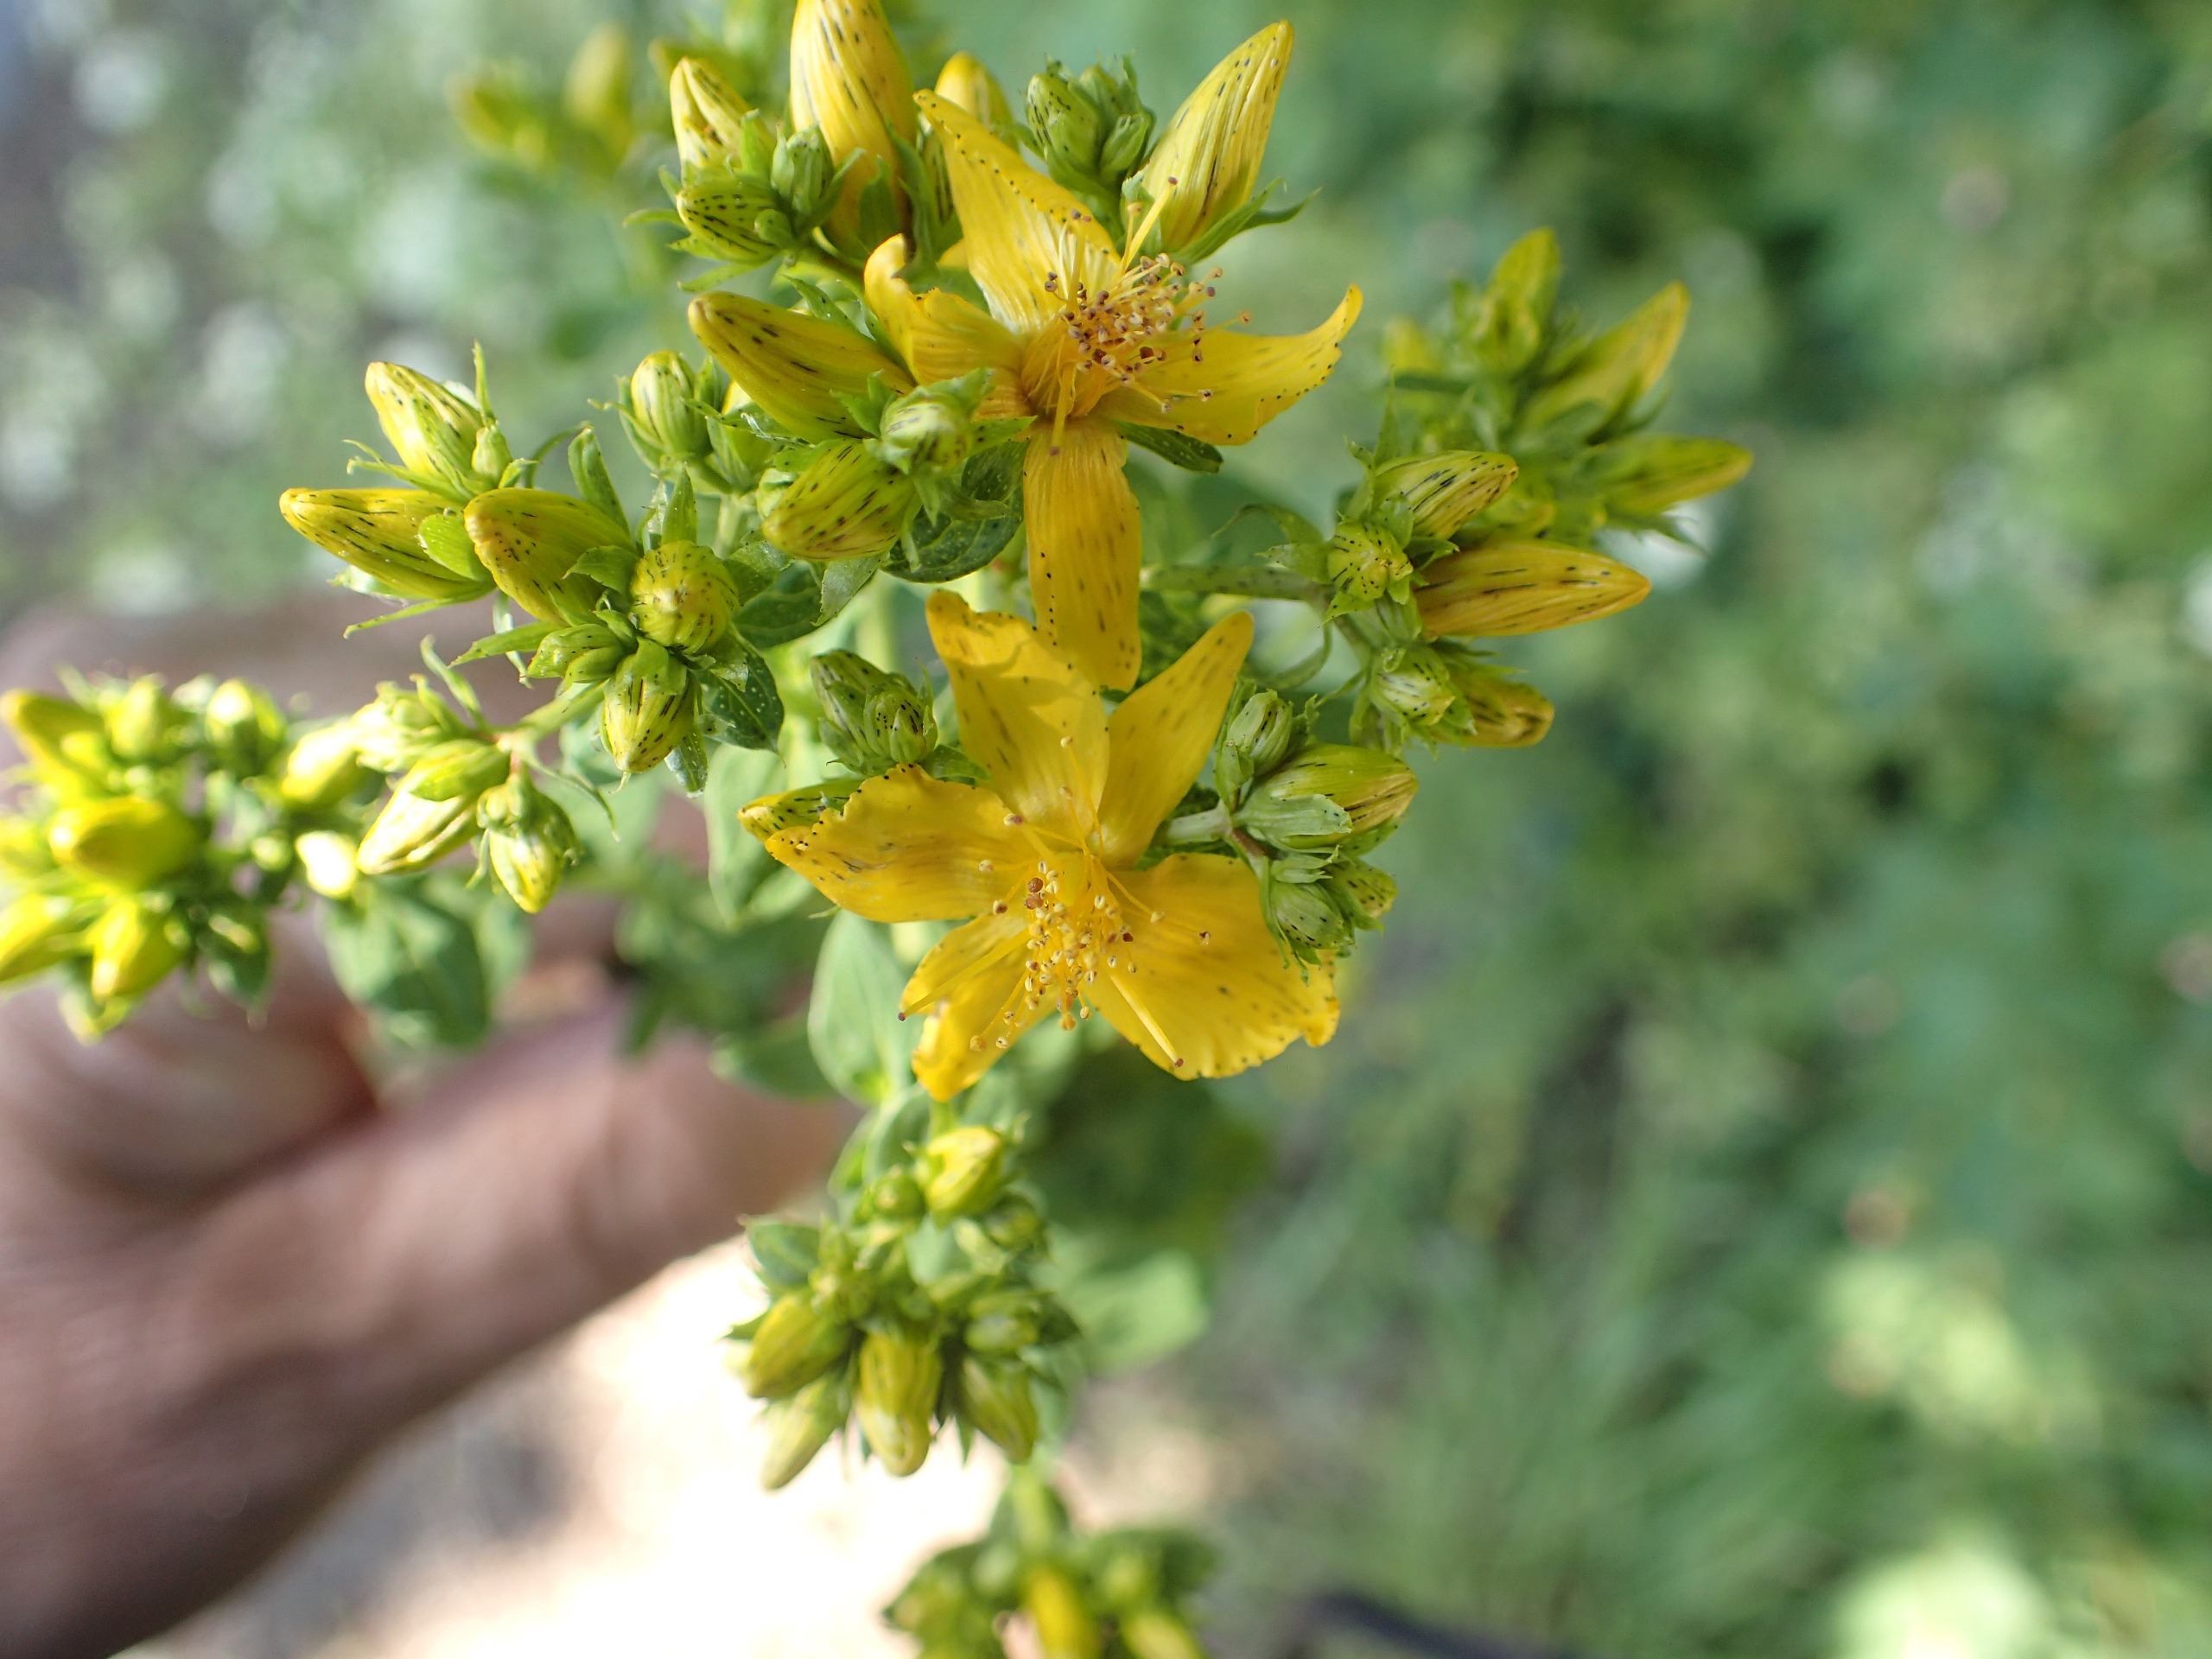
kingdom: Plantae
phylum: Tracheophyta
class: Magnoliopsida
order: Malpighiales
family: Hypericaceae
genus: Hypericum
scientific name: Hypericum perforatum
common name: Prikbladet perikon
